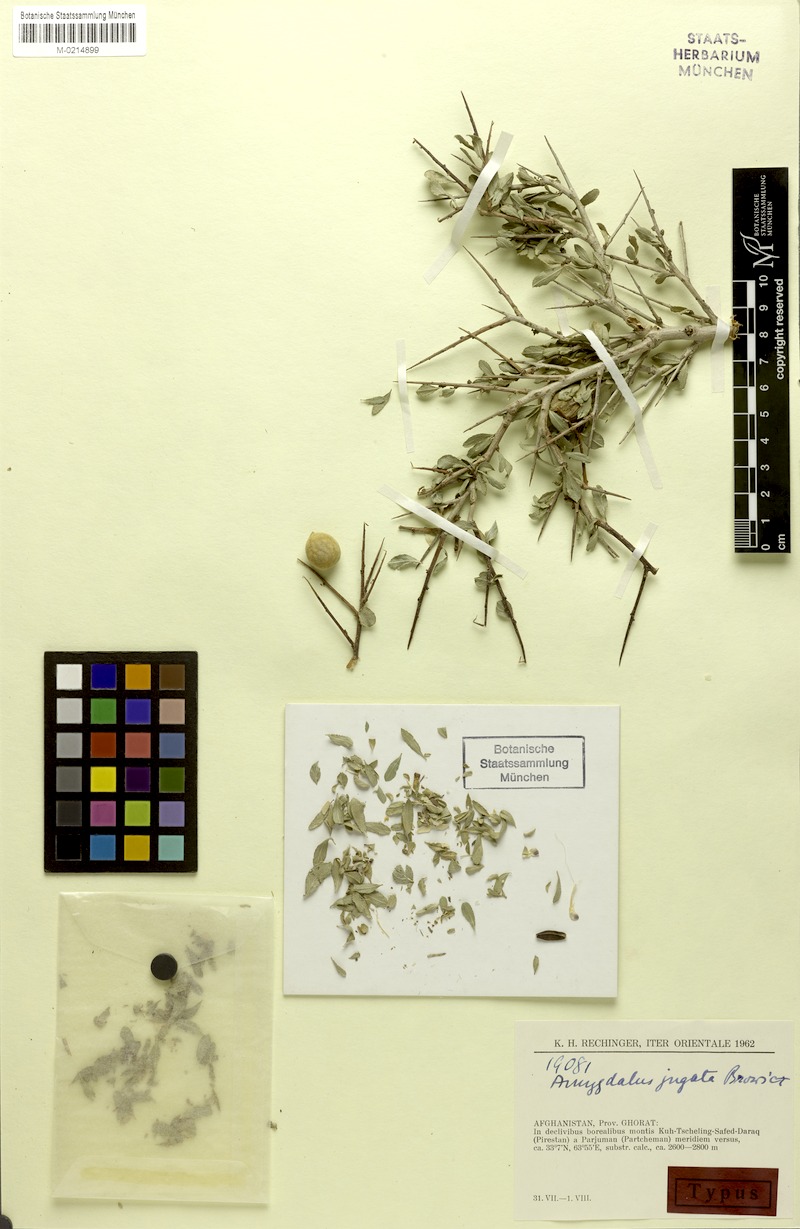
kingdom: Plantae
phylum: Tracheophyta
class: Magnoliopsida
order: Rosales
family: Rosaceae
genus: Prunus
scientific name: Prunus jugata
